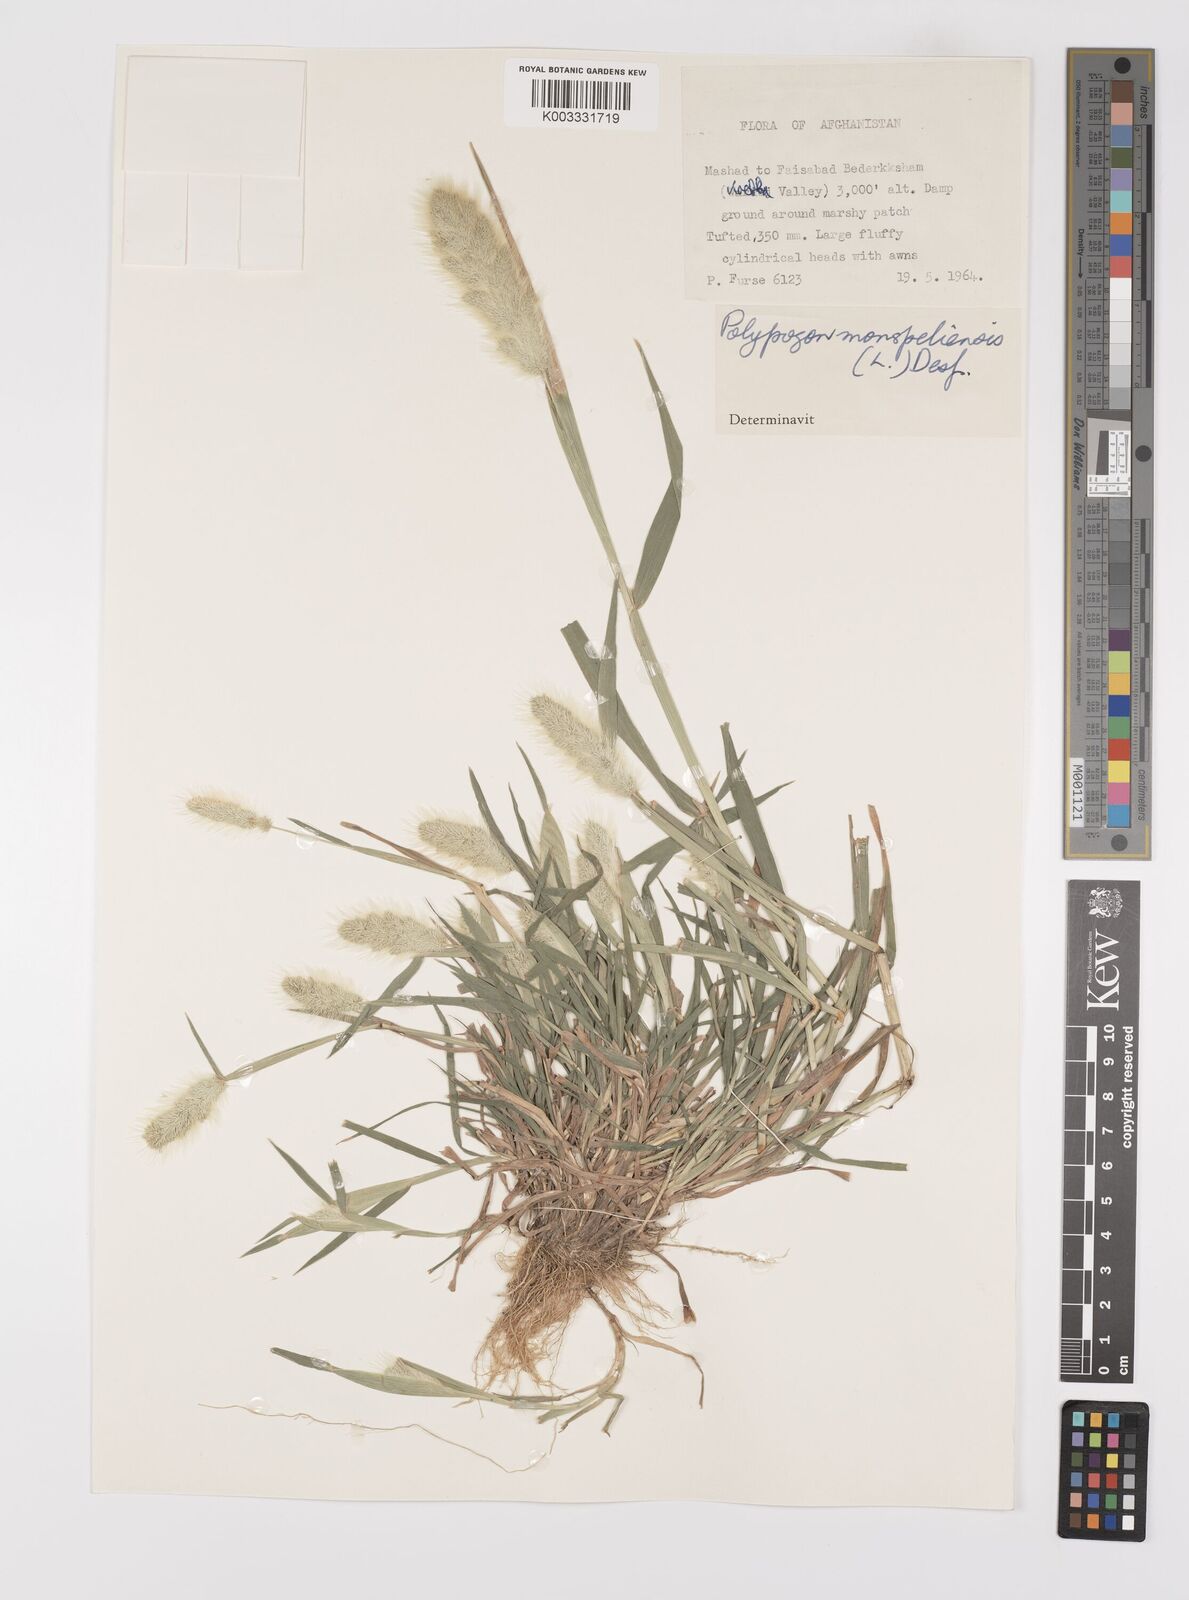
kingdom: Plantae
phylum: Tracheophyta
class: Liliopsida
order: Poales
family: Poaceae
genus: Polypogon
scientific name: Polypogon monspeliensis
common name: Annual rabbitsfoot grass
